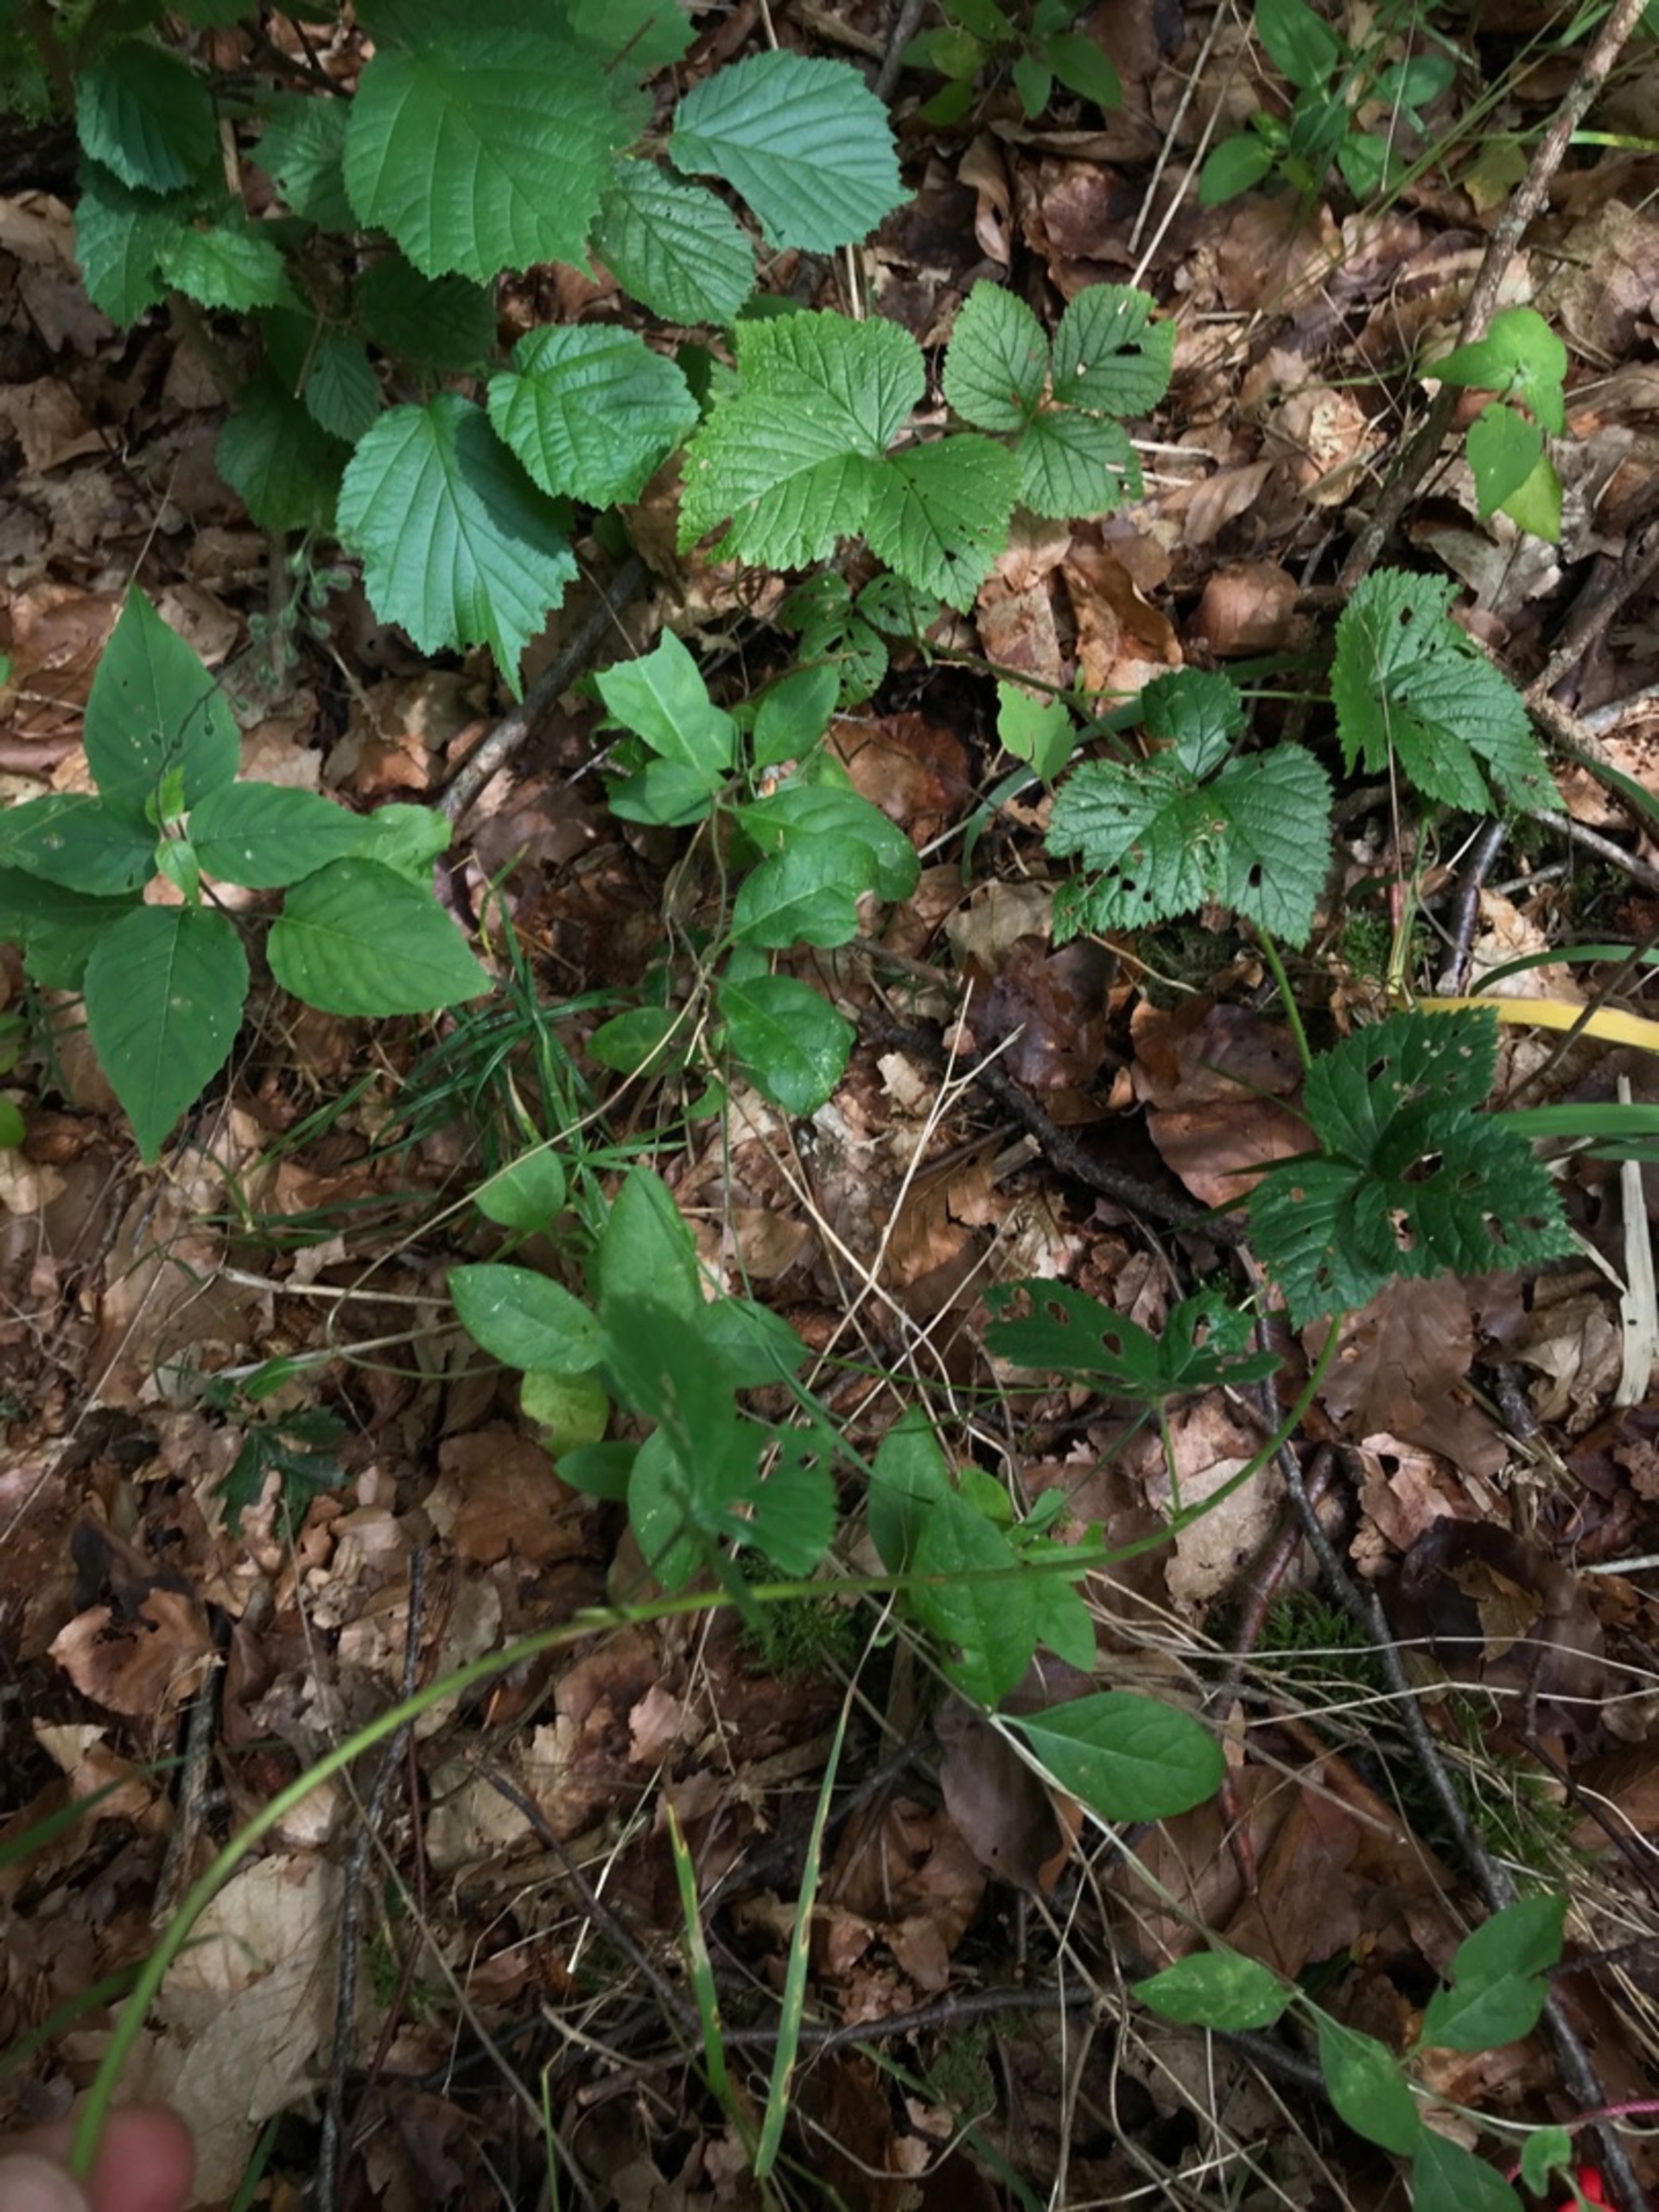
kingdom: Plantae
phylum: Tracheophyta
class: Magnoliopsida
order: Rosales
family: Rosaceae
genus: Rubus
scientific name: Rubus saxatilis
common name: Fruebær
